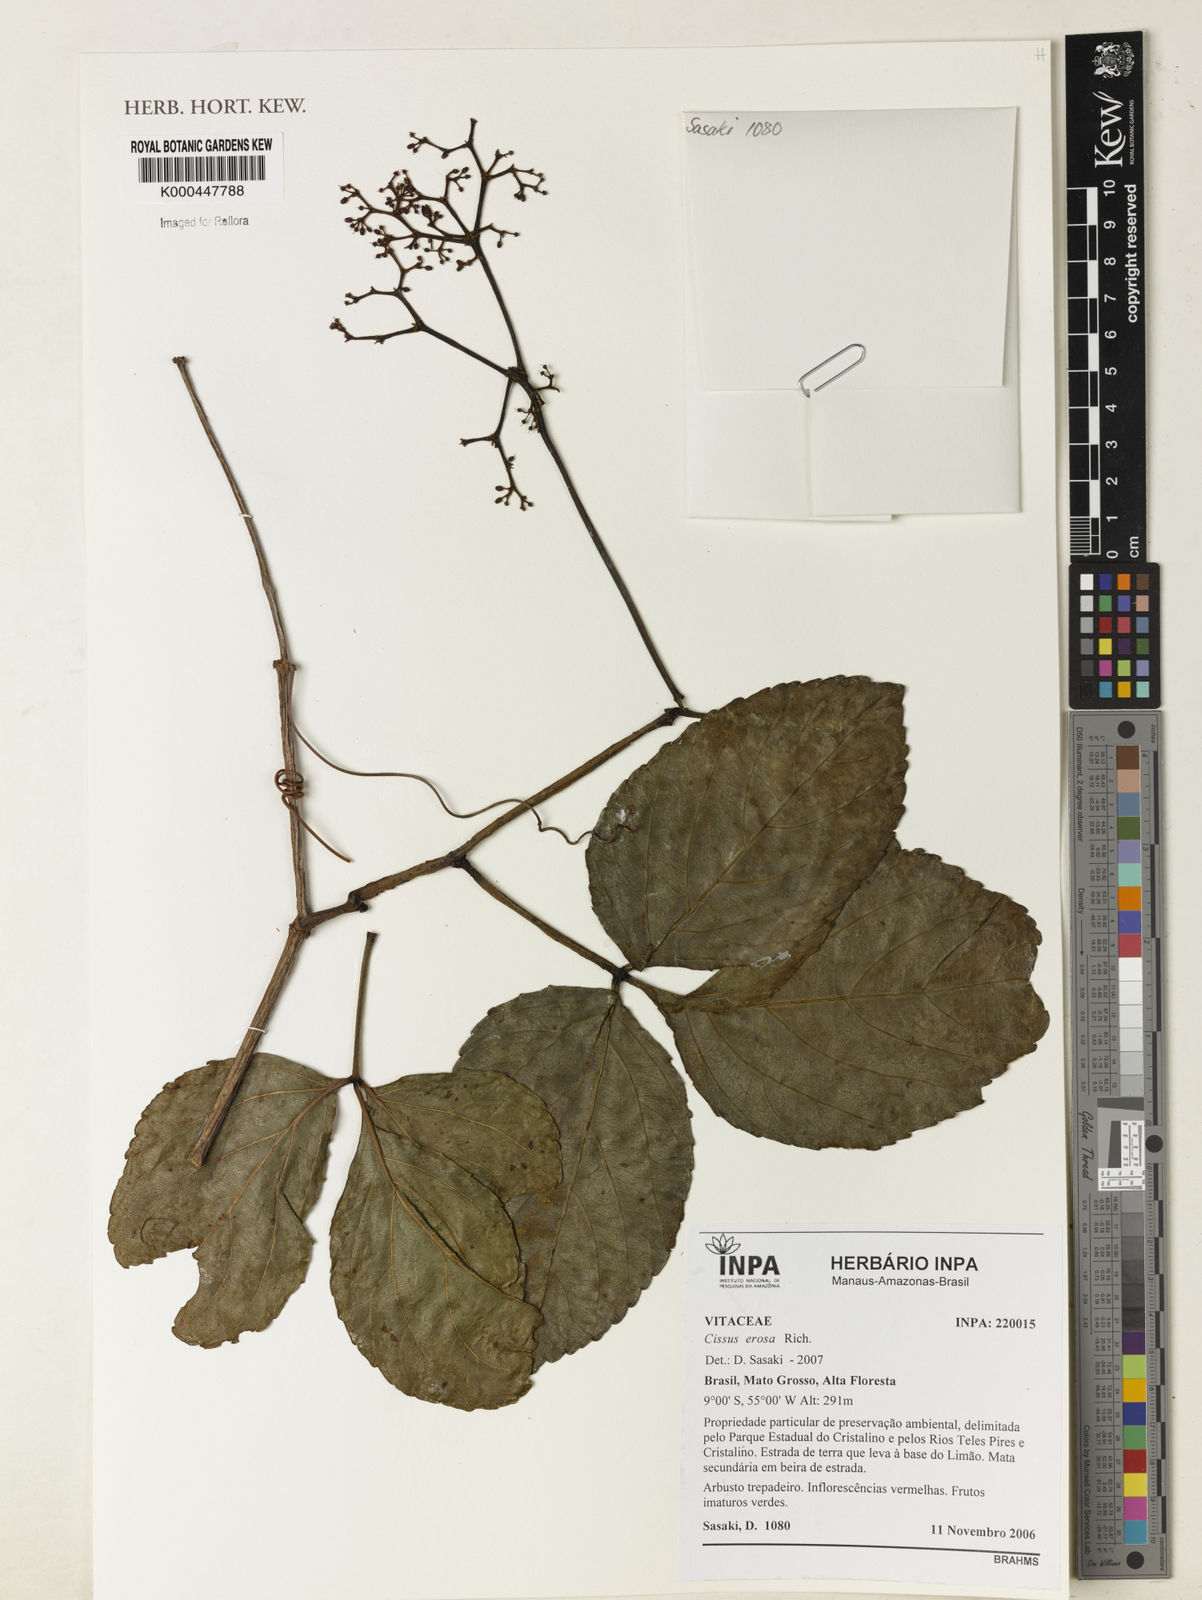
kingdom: Plantae
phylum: Tracheophyta
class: Magnoliopsida
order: Vitales
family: Vitaceae
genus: Cissus
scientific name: Cissus erosa
